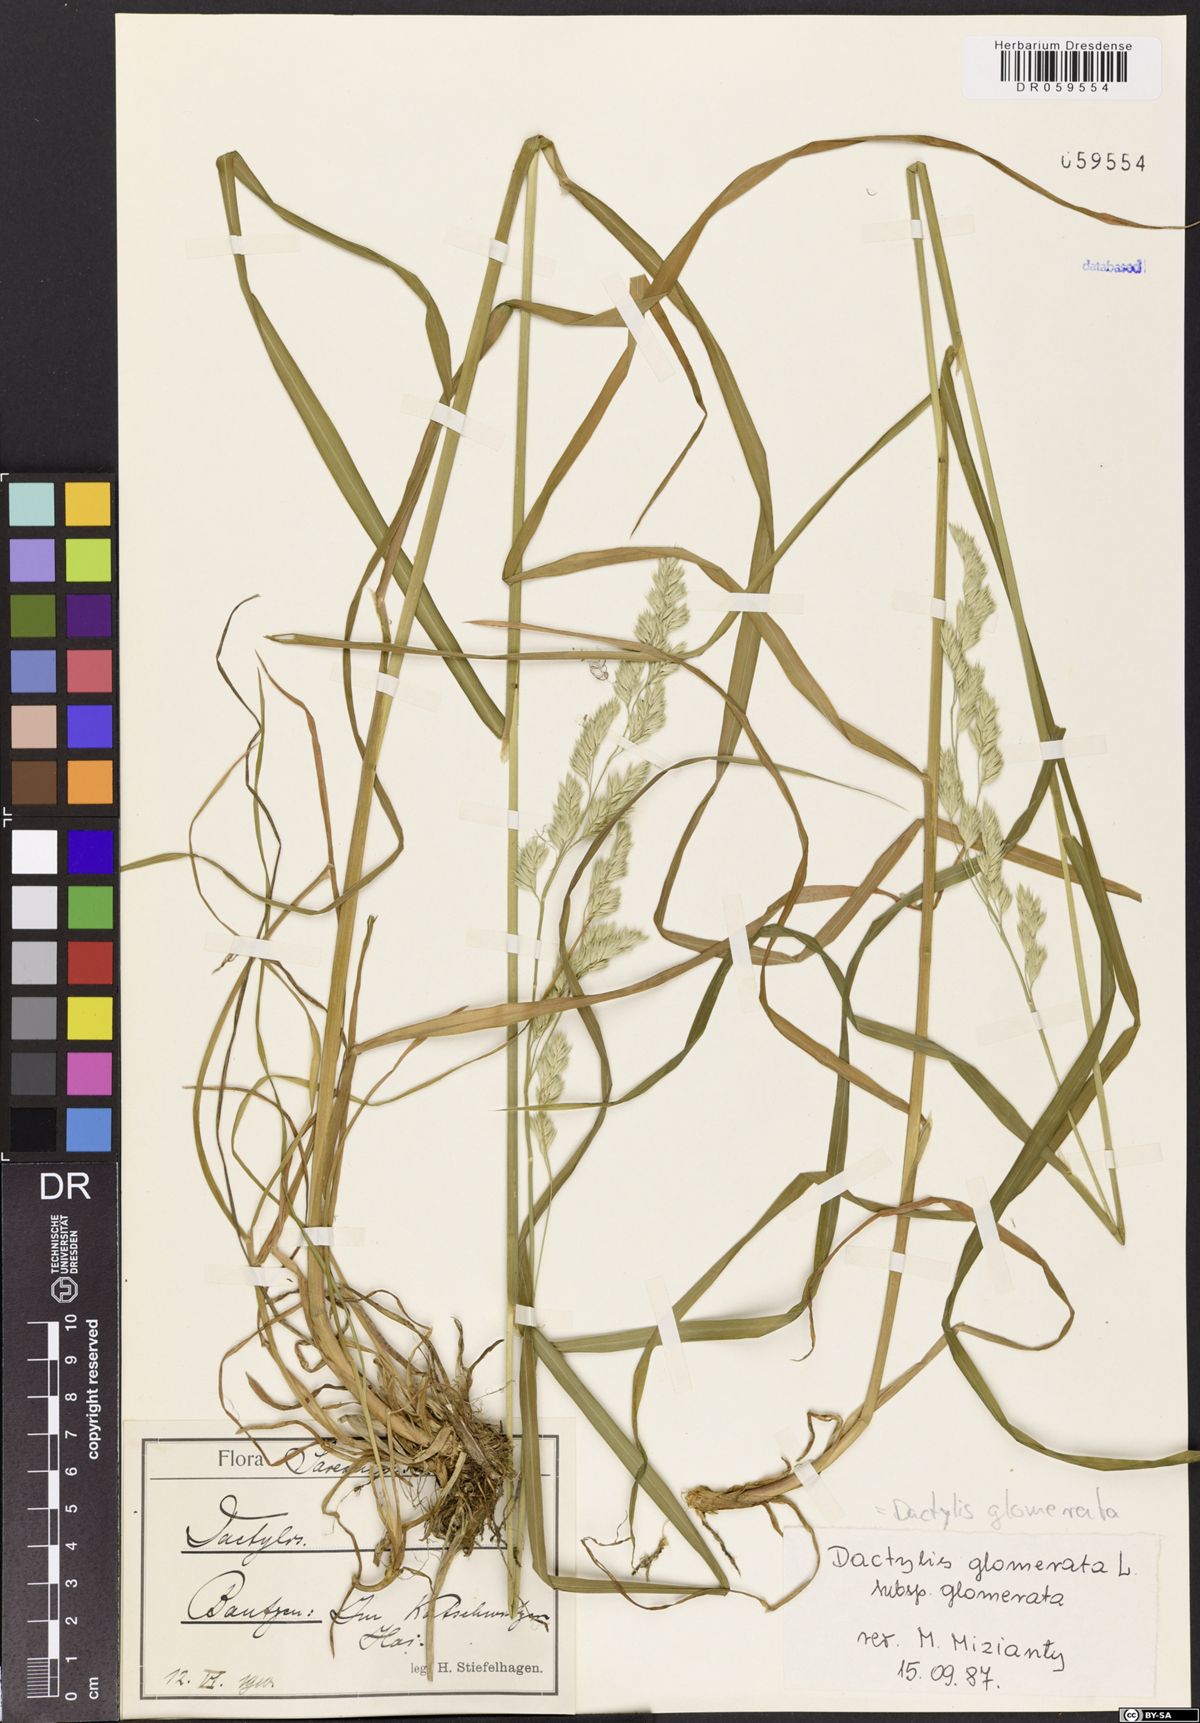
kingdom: Plantae
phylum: Tracheophyta
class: Liliopsida
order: Poales
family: Poaceae
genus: Dactylis
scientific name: Dactylis glomerata
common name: Orchardgrass
